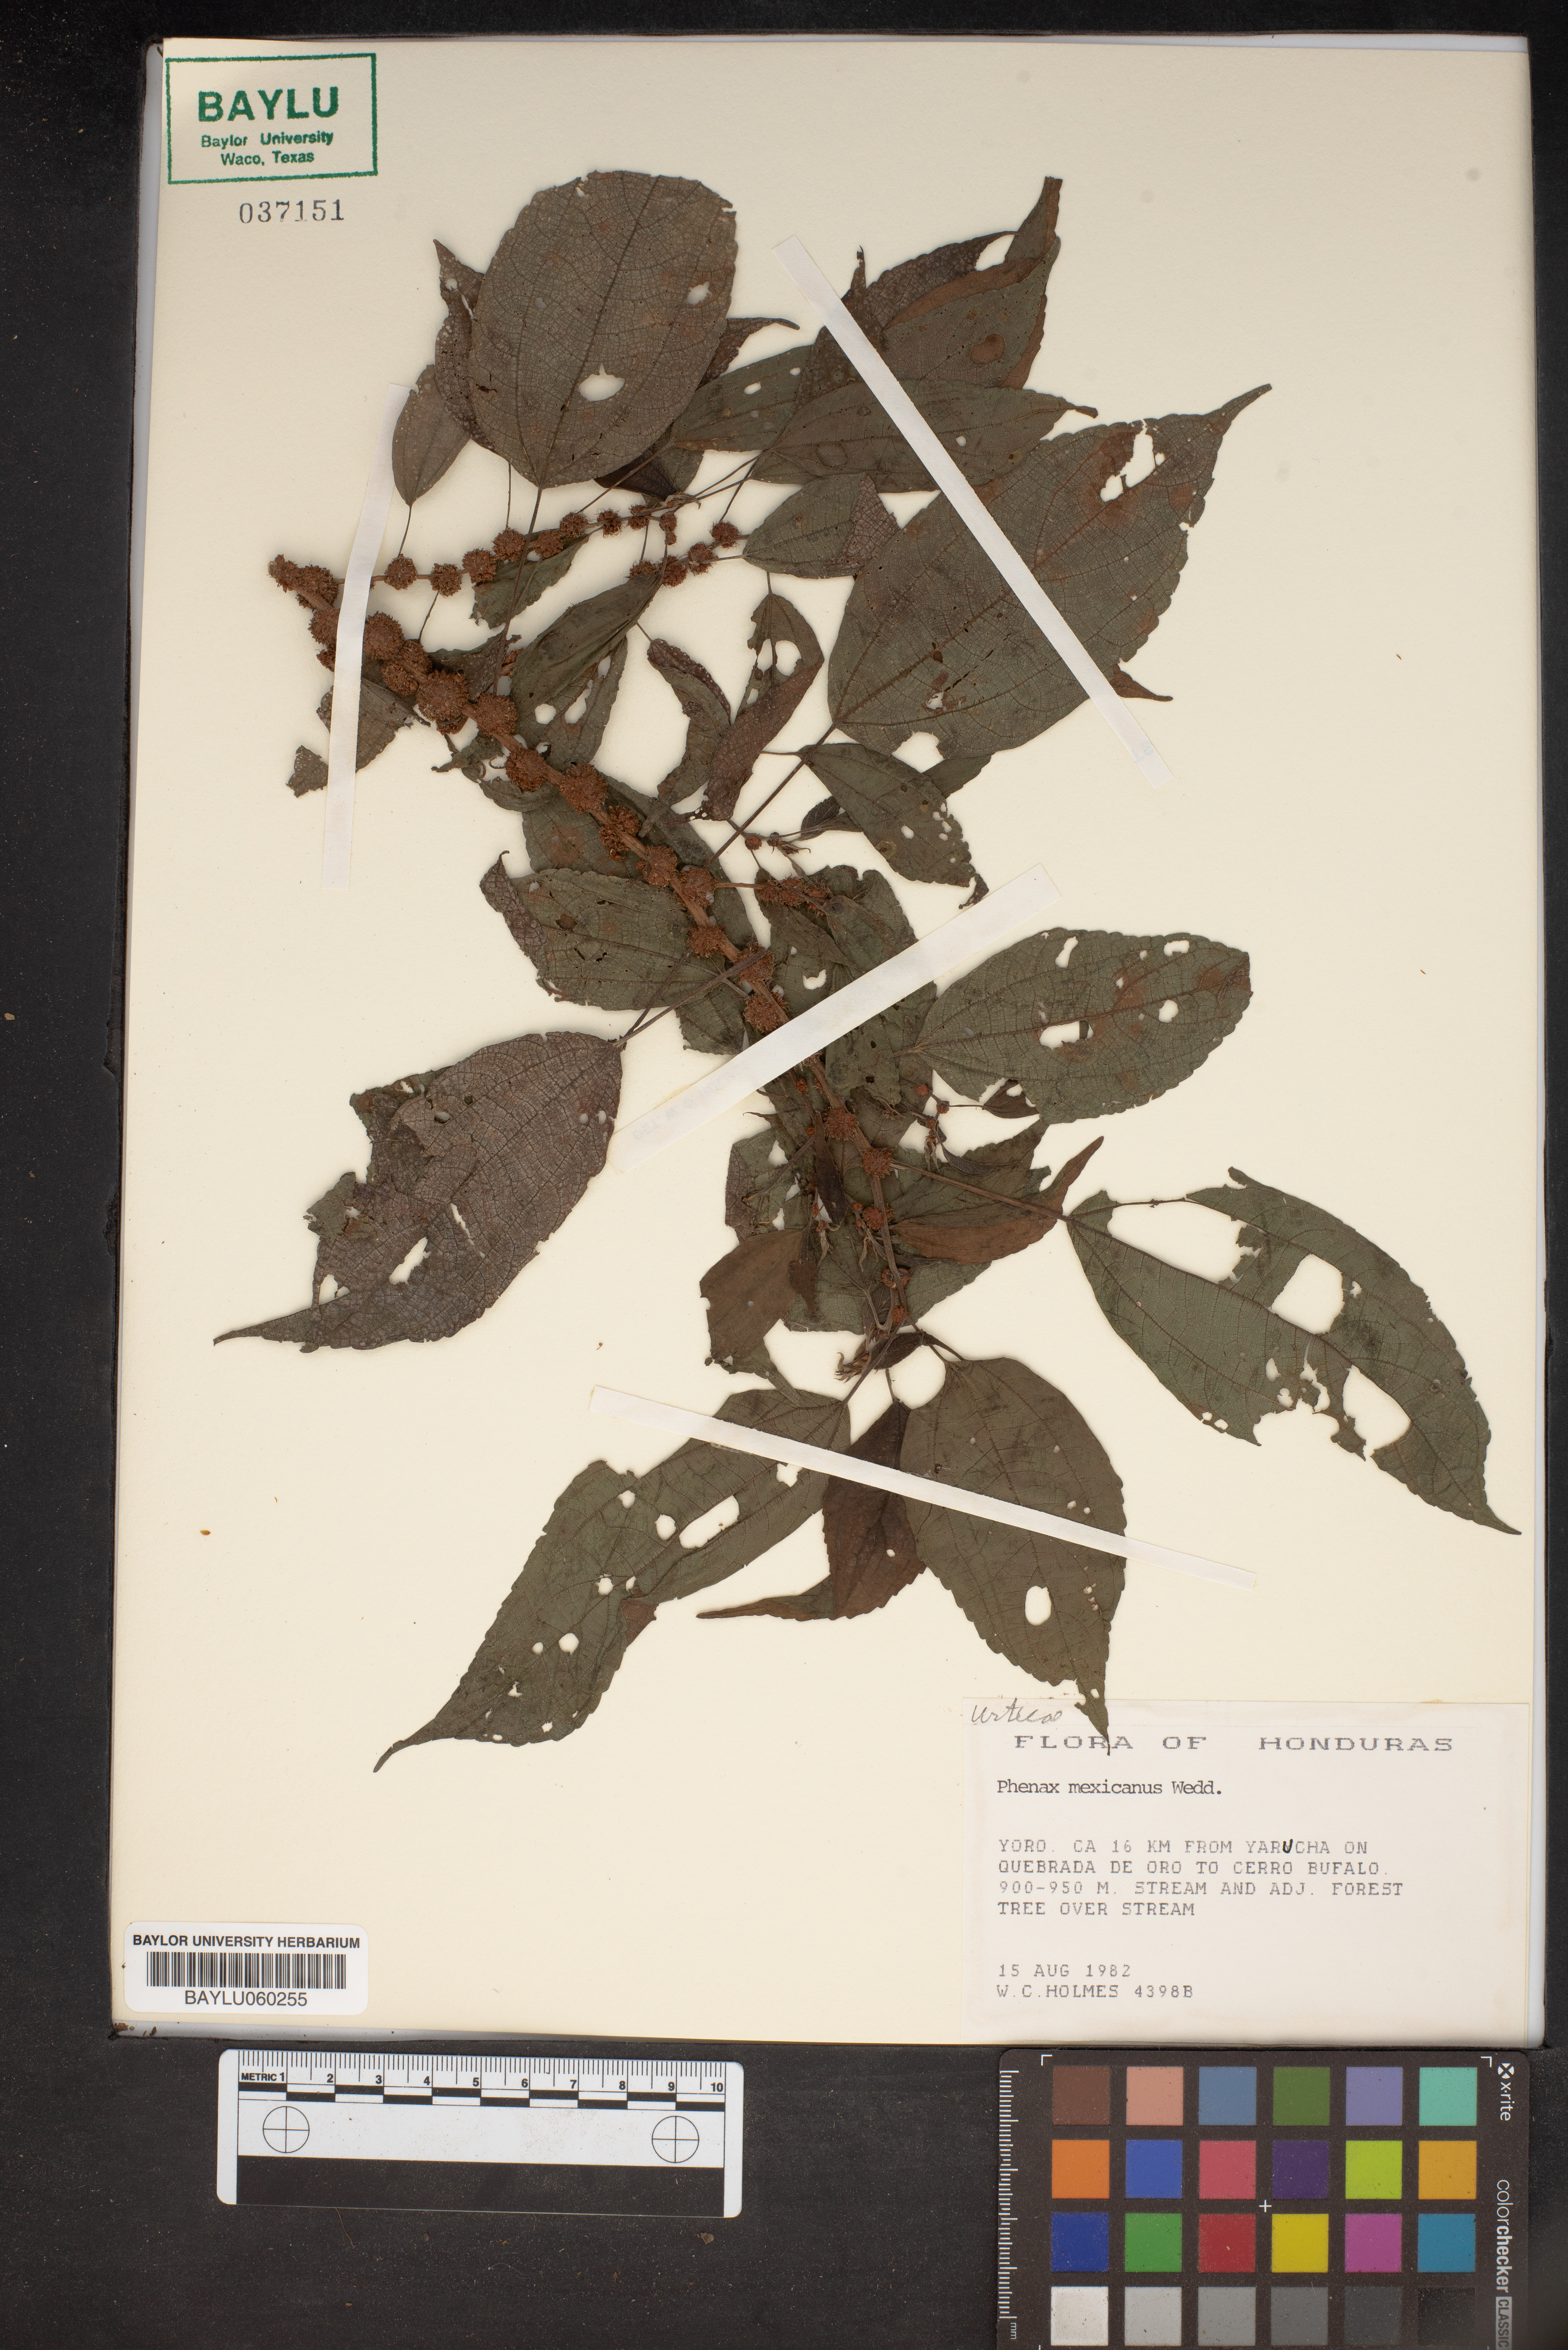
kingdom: Plantae
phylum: Tracheophyta
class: Magnoliopsida
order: Rosales
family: Urticaceae
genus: Phenax
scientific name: Phenax mexicanus
